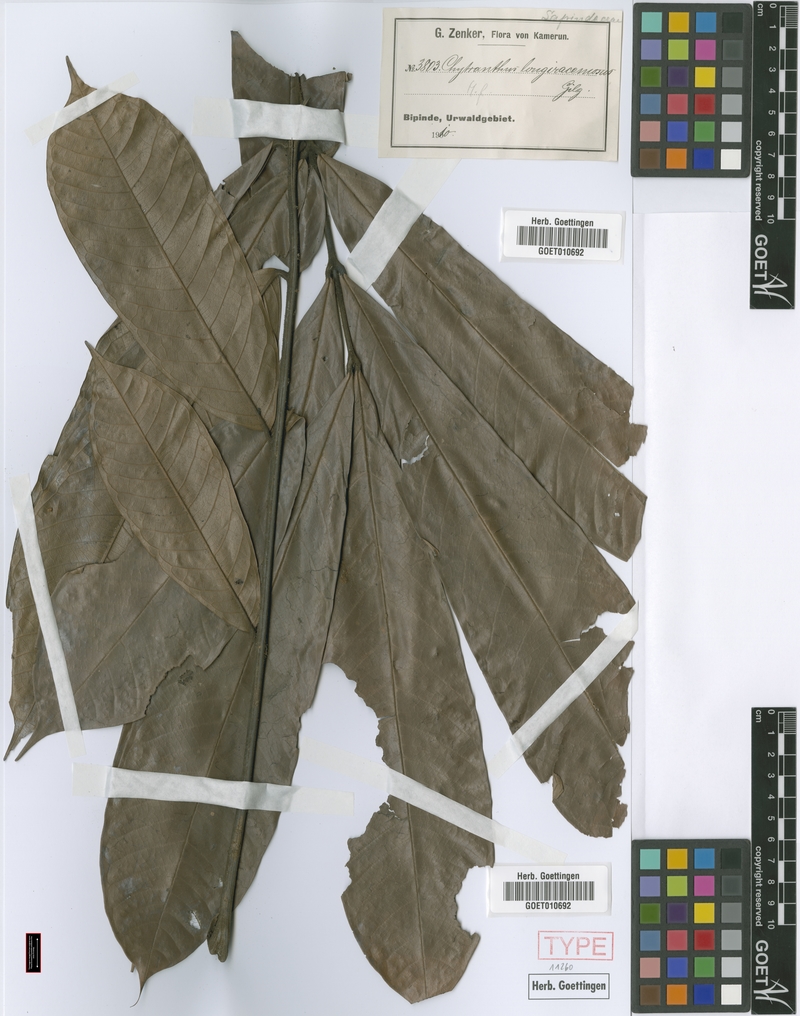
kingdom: Plantae
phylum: Tracheophyta
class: Magnoliopsida
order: Sapindales
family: Sapindaceae
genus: Chytranthus
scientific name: Chytranthus carneus
